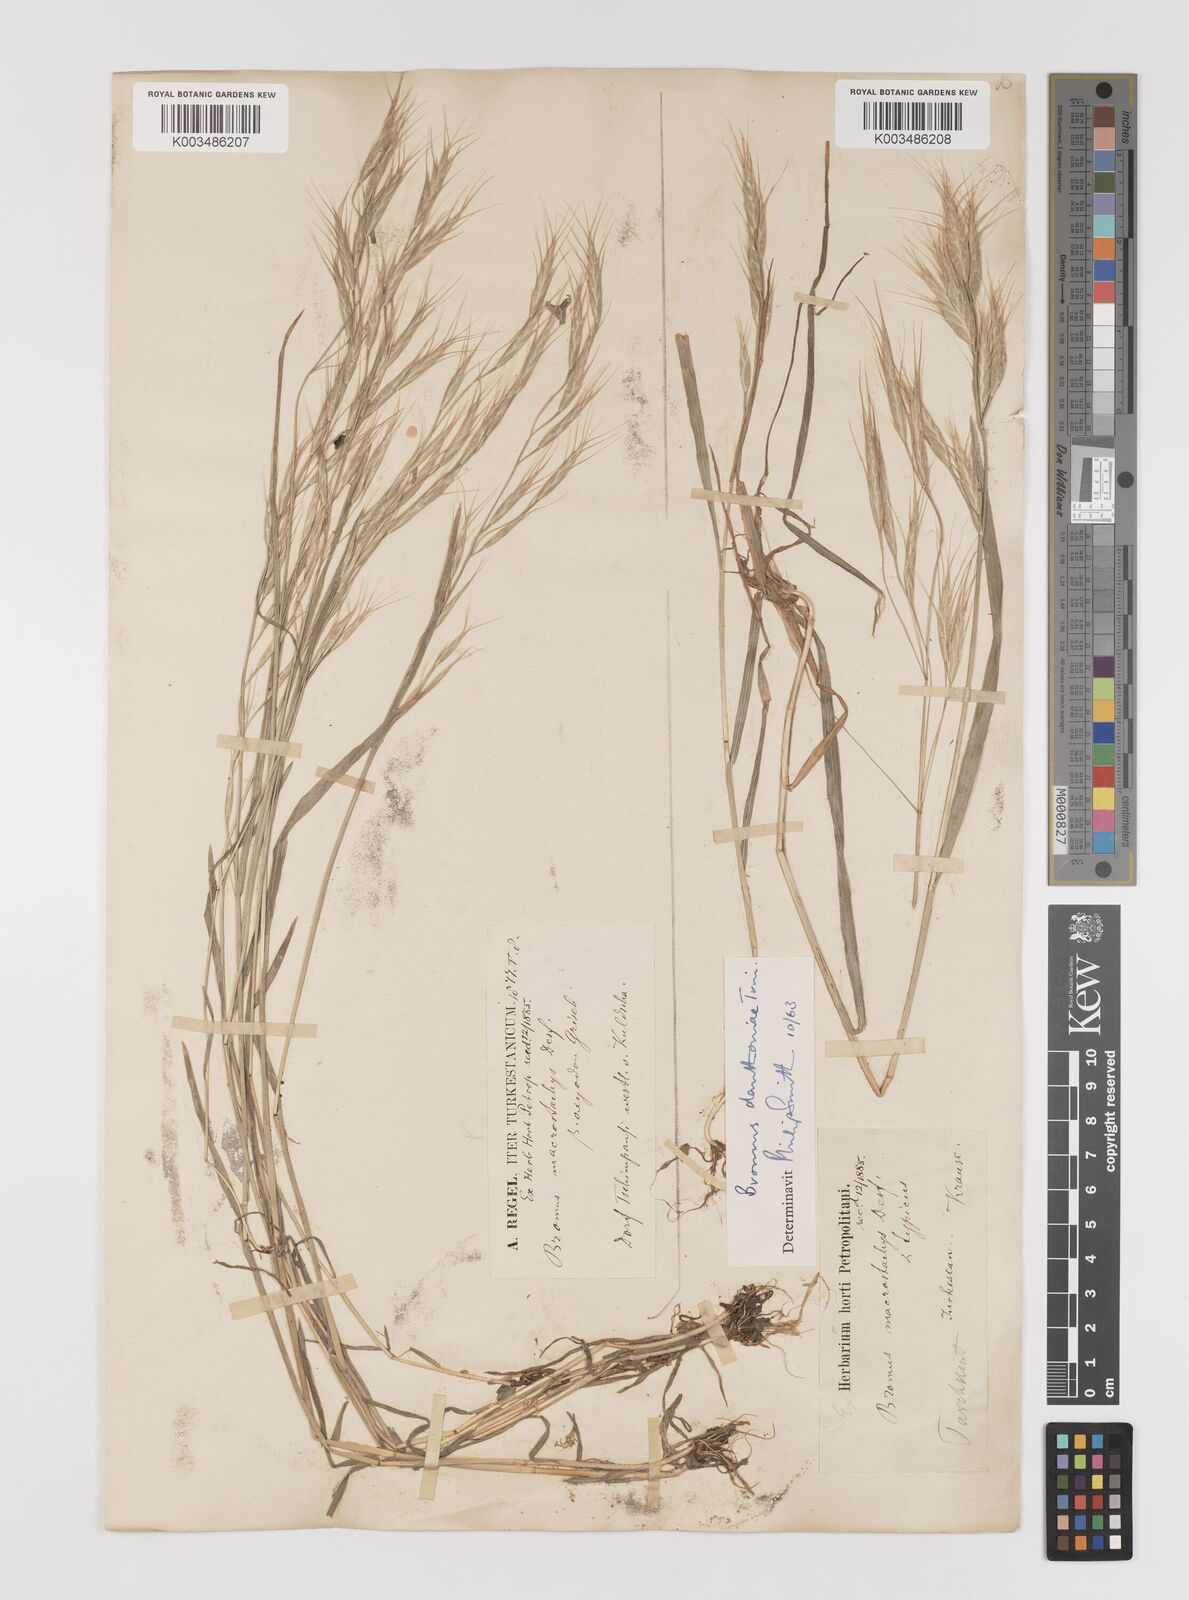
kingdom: Plantae
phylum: Tracheophyta
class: Liliopsida
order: Poales
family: Poaceae
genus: Bromus
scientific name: Bromus oxyodon
